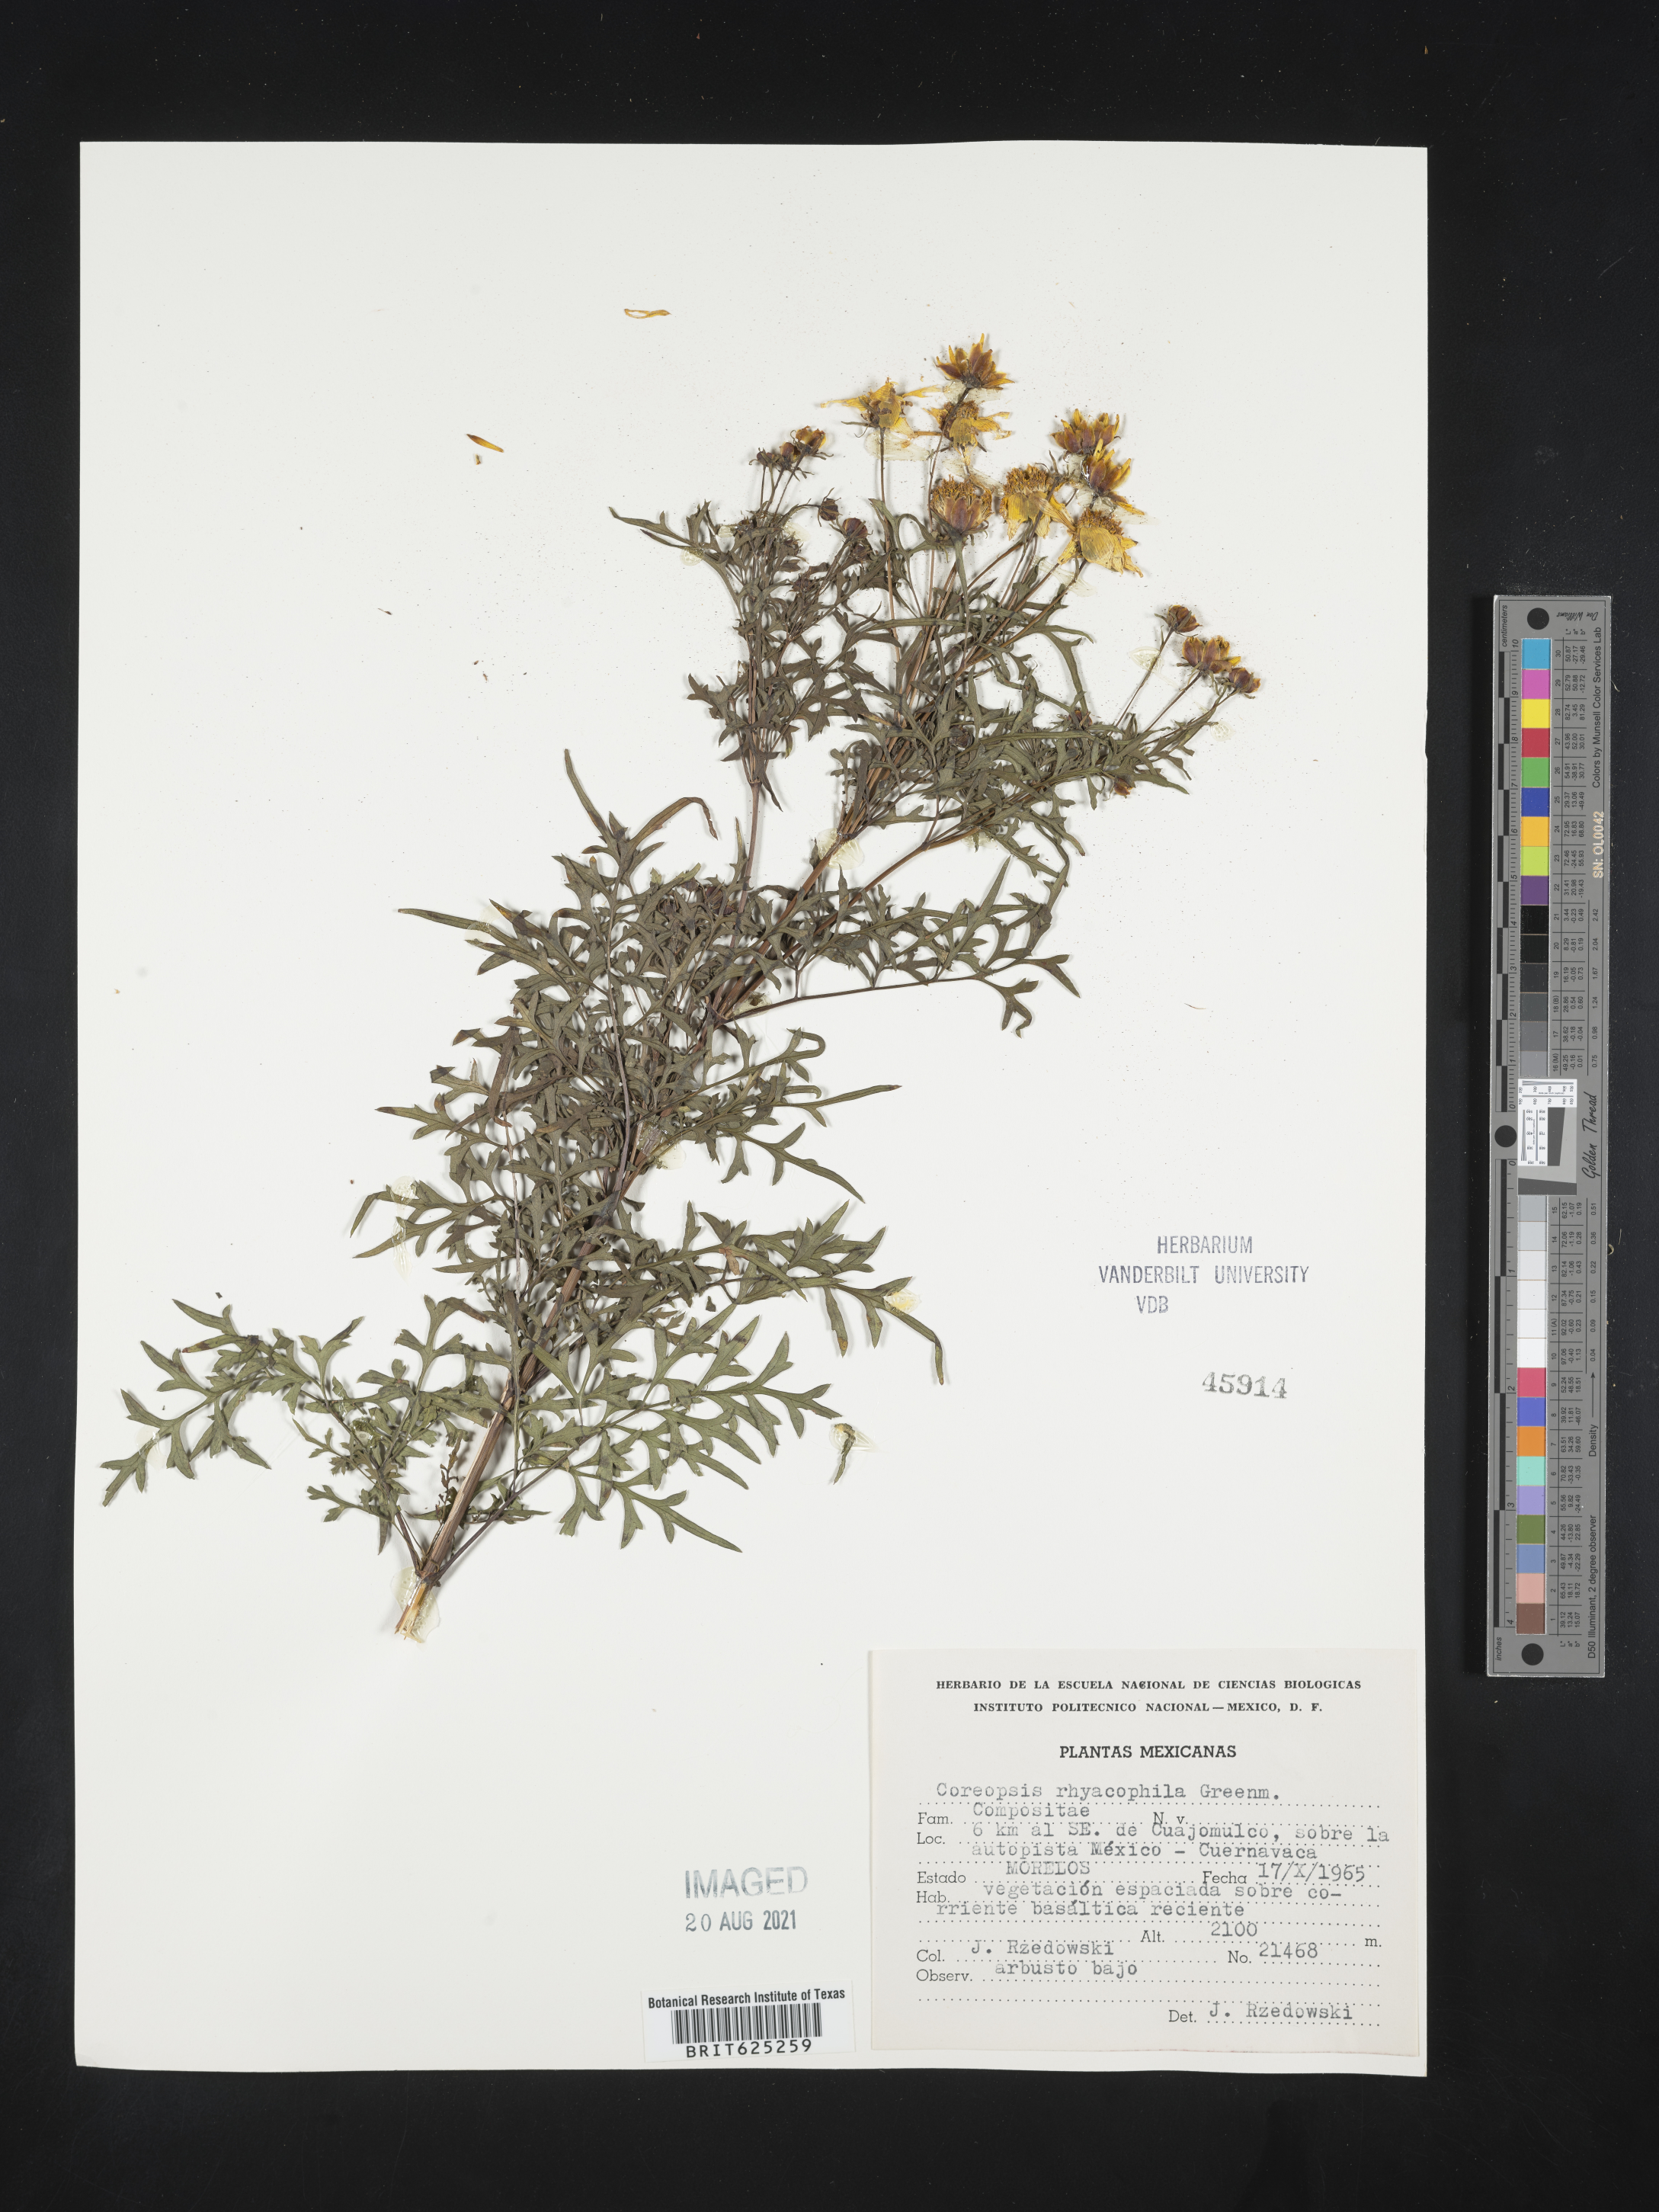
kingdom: Plantae
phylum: Tracheophyta
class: Magnoliopsida
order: Asterales
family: Asteraceae
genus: Coreopsis
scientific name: Coreopsis
